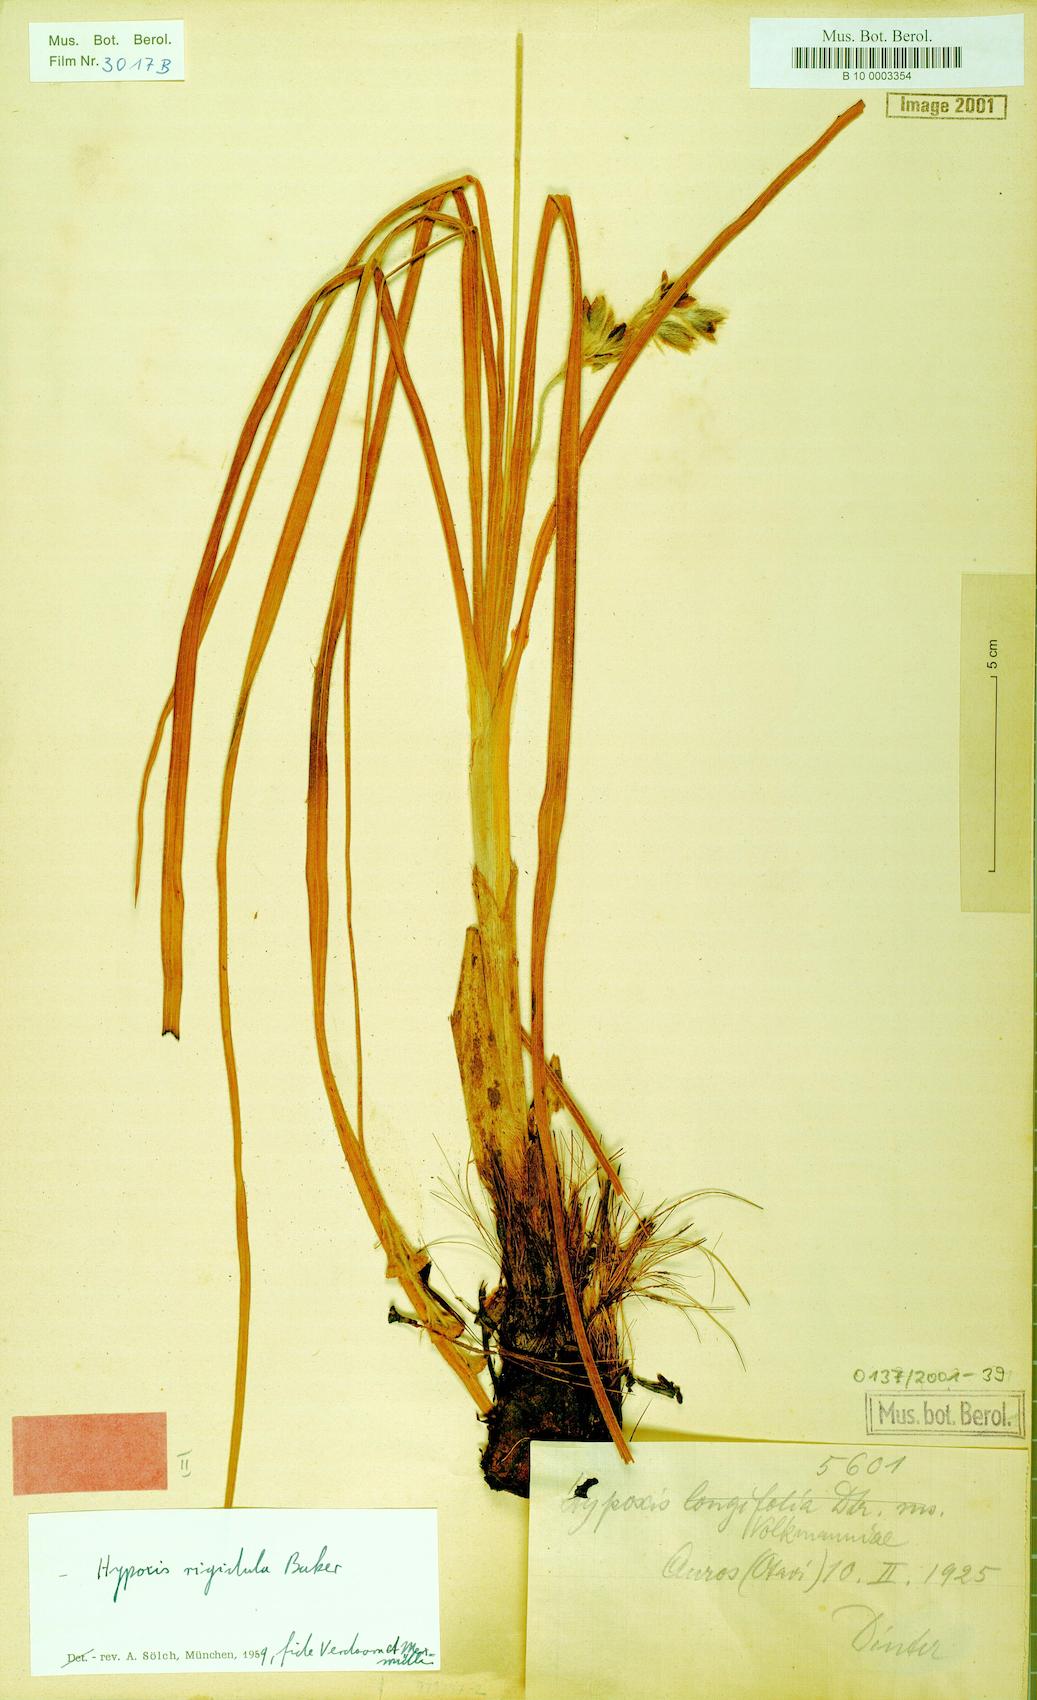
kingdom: Plantae
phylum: Tracheophyta
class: Liliopsida
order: Asparagales
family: Hypoxidaceae
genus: Hypoxis
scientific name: Hypoxis rigidula
